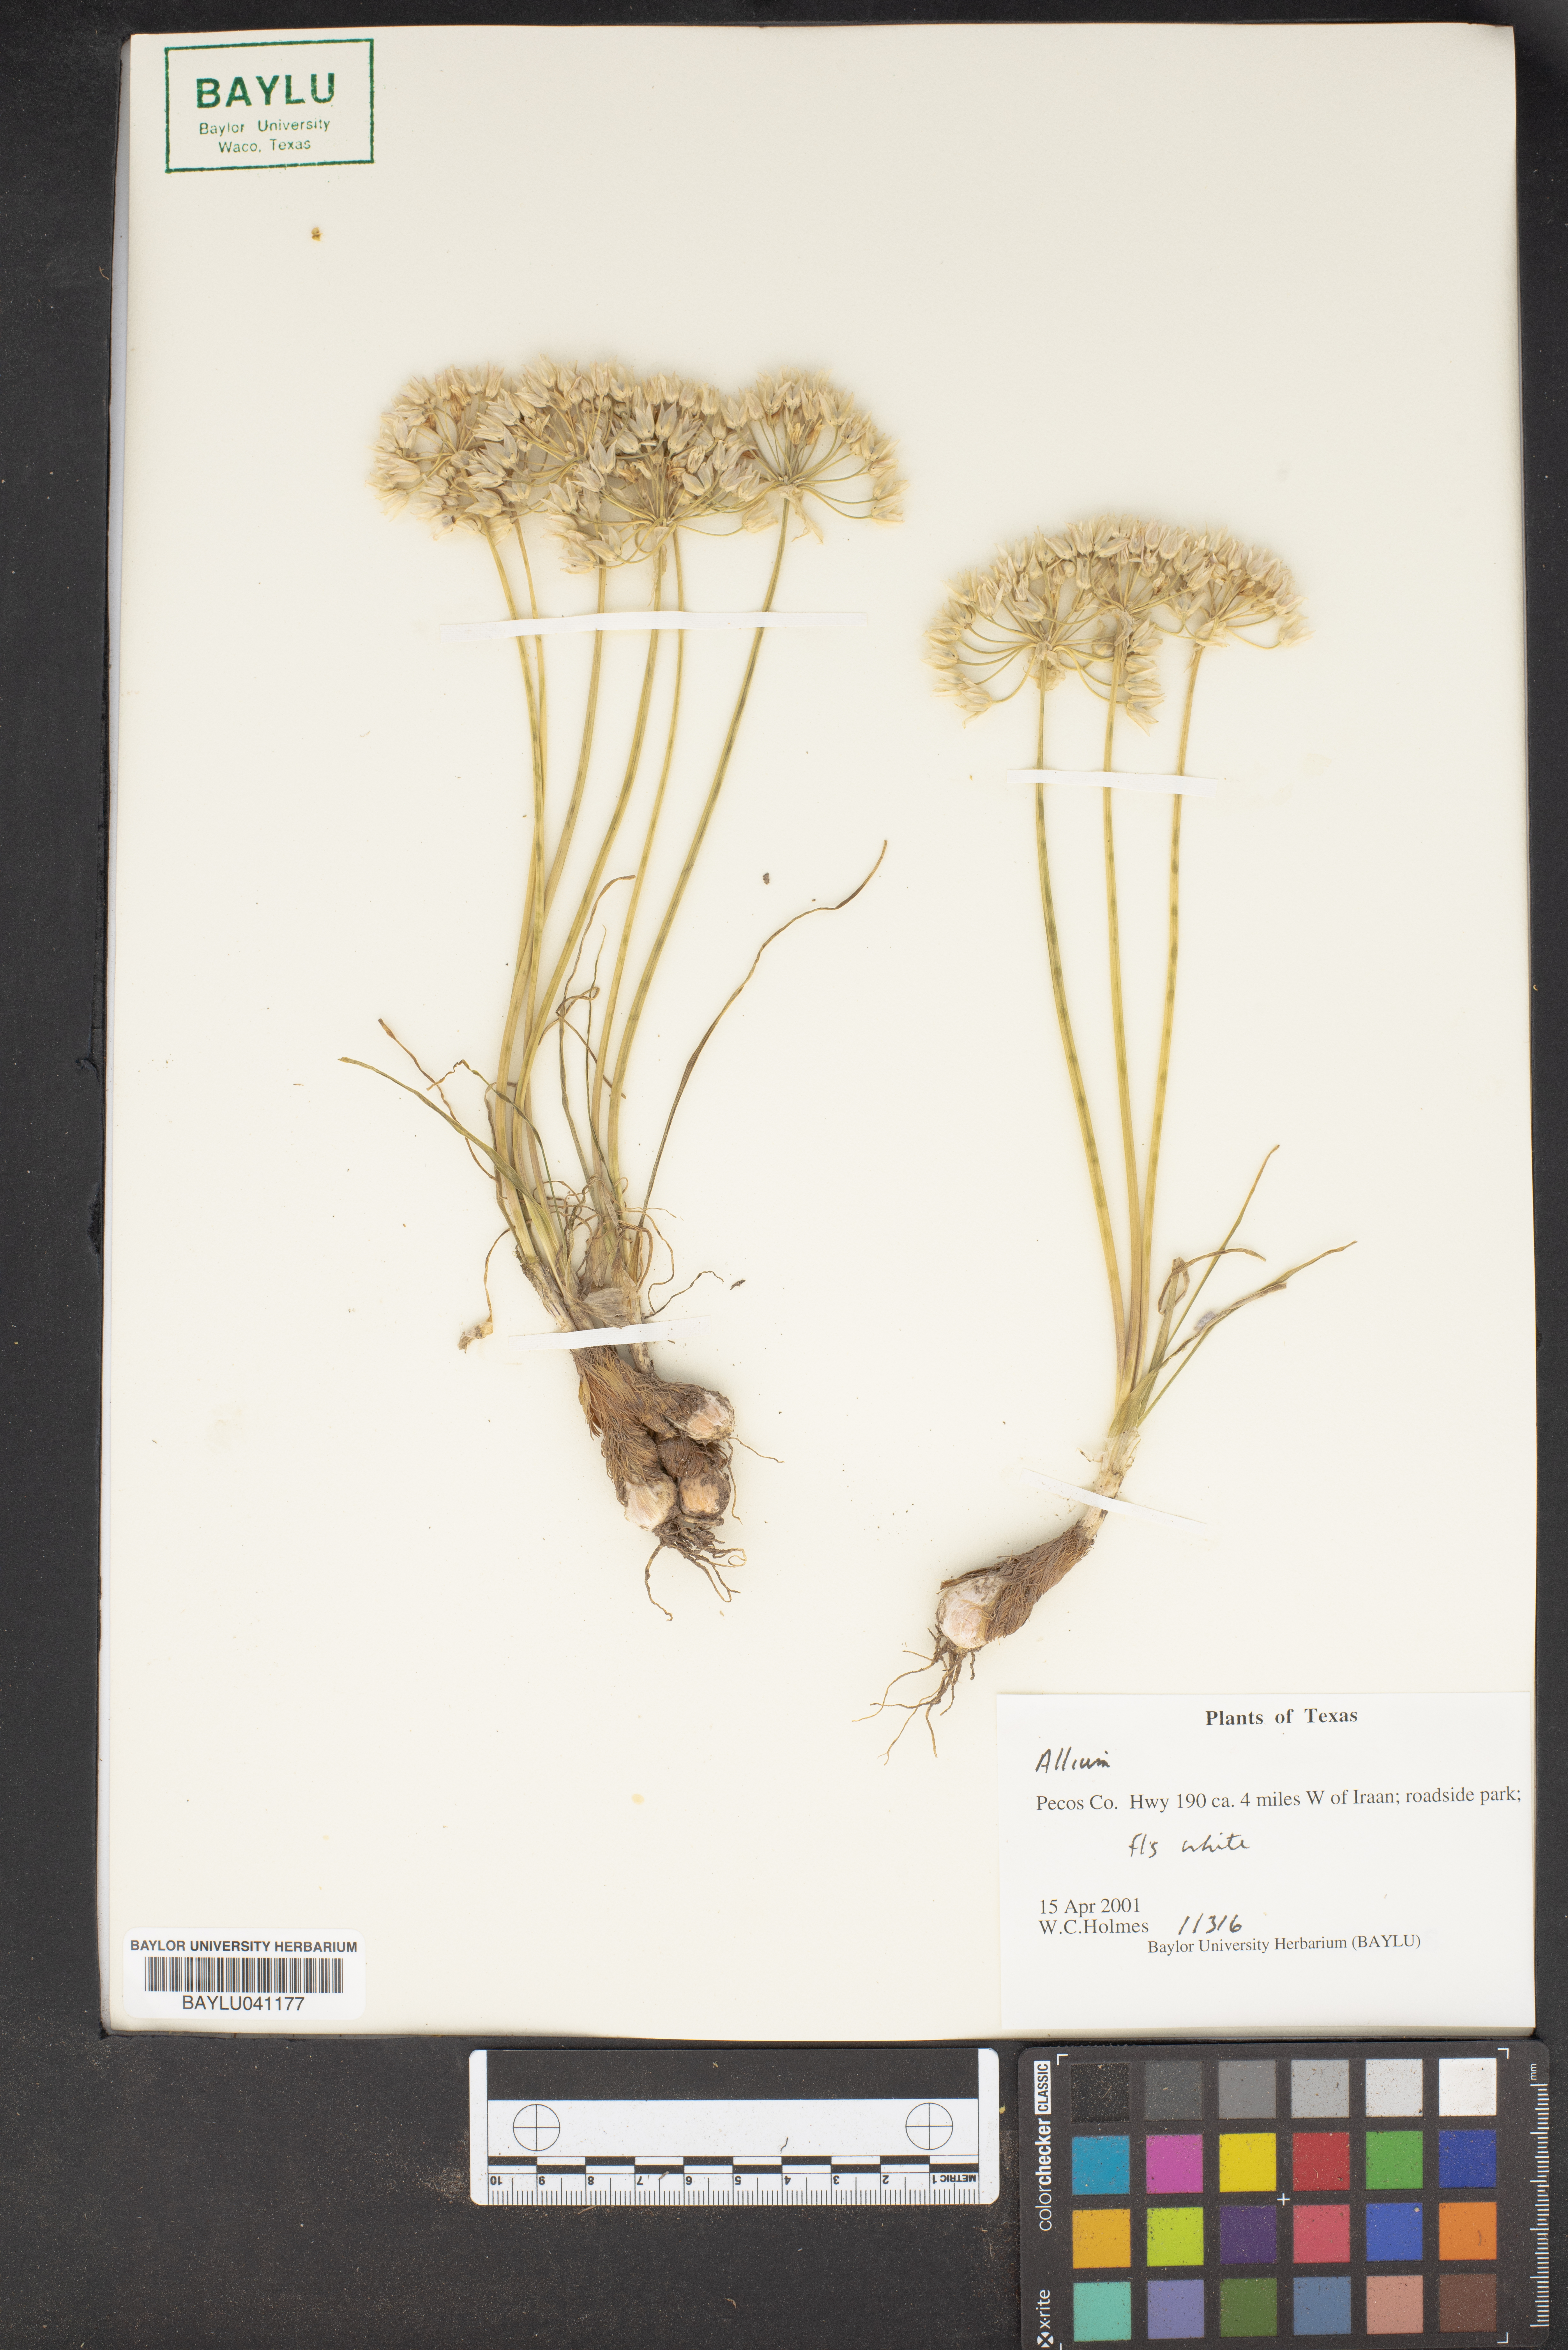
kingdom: Plantae
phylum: Tracheophyta
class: Liliopsida
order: Asparagales
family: Amaryllidaceae
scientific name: Amaryllidaceae
